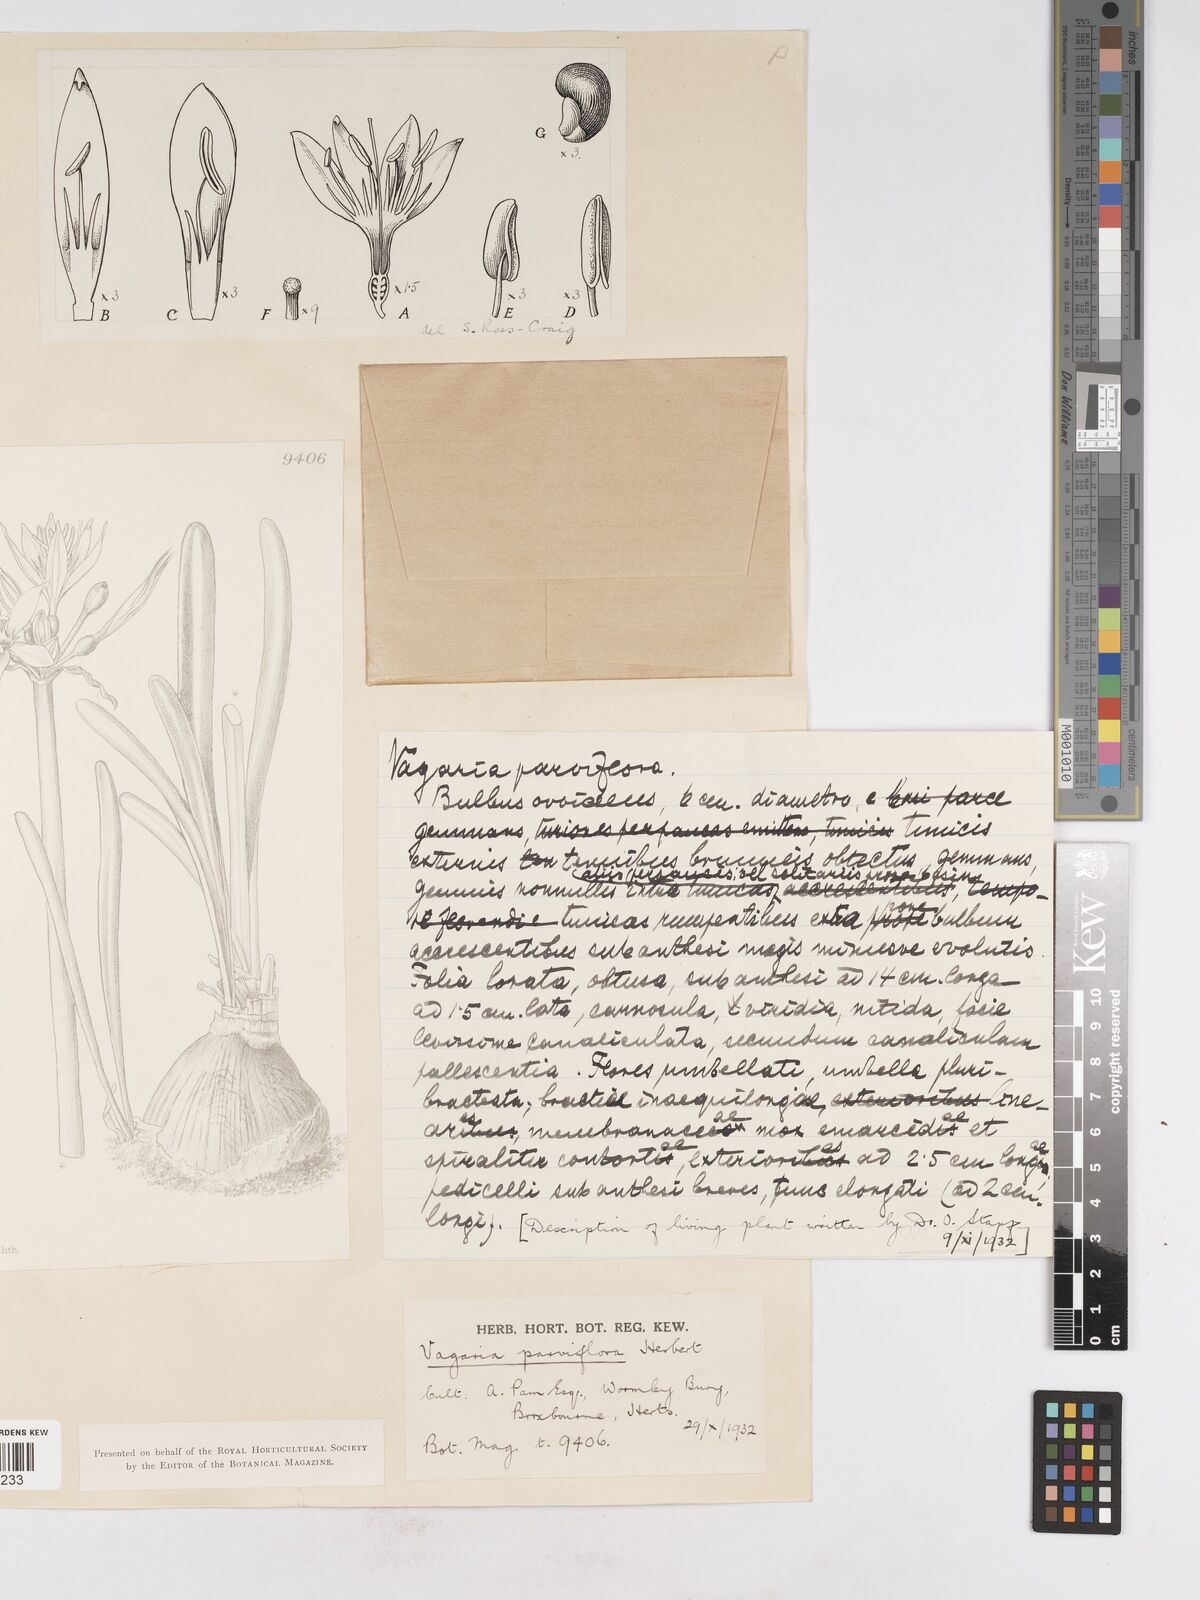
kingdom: Plantae
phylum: Tracheophyta
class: Liliopsida
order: Asparagales
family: Amaryllidaceae
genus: Vagaria
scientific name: Vagaria parviflora
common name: Small-flowered pancratium
